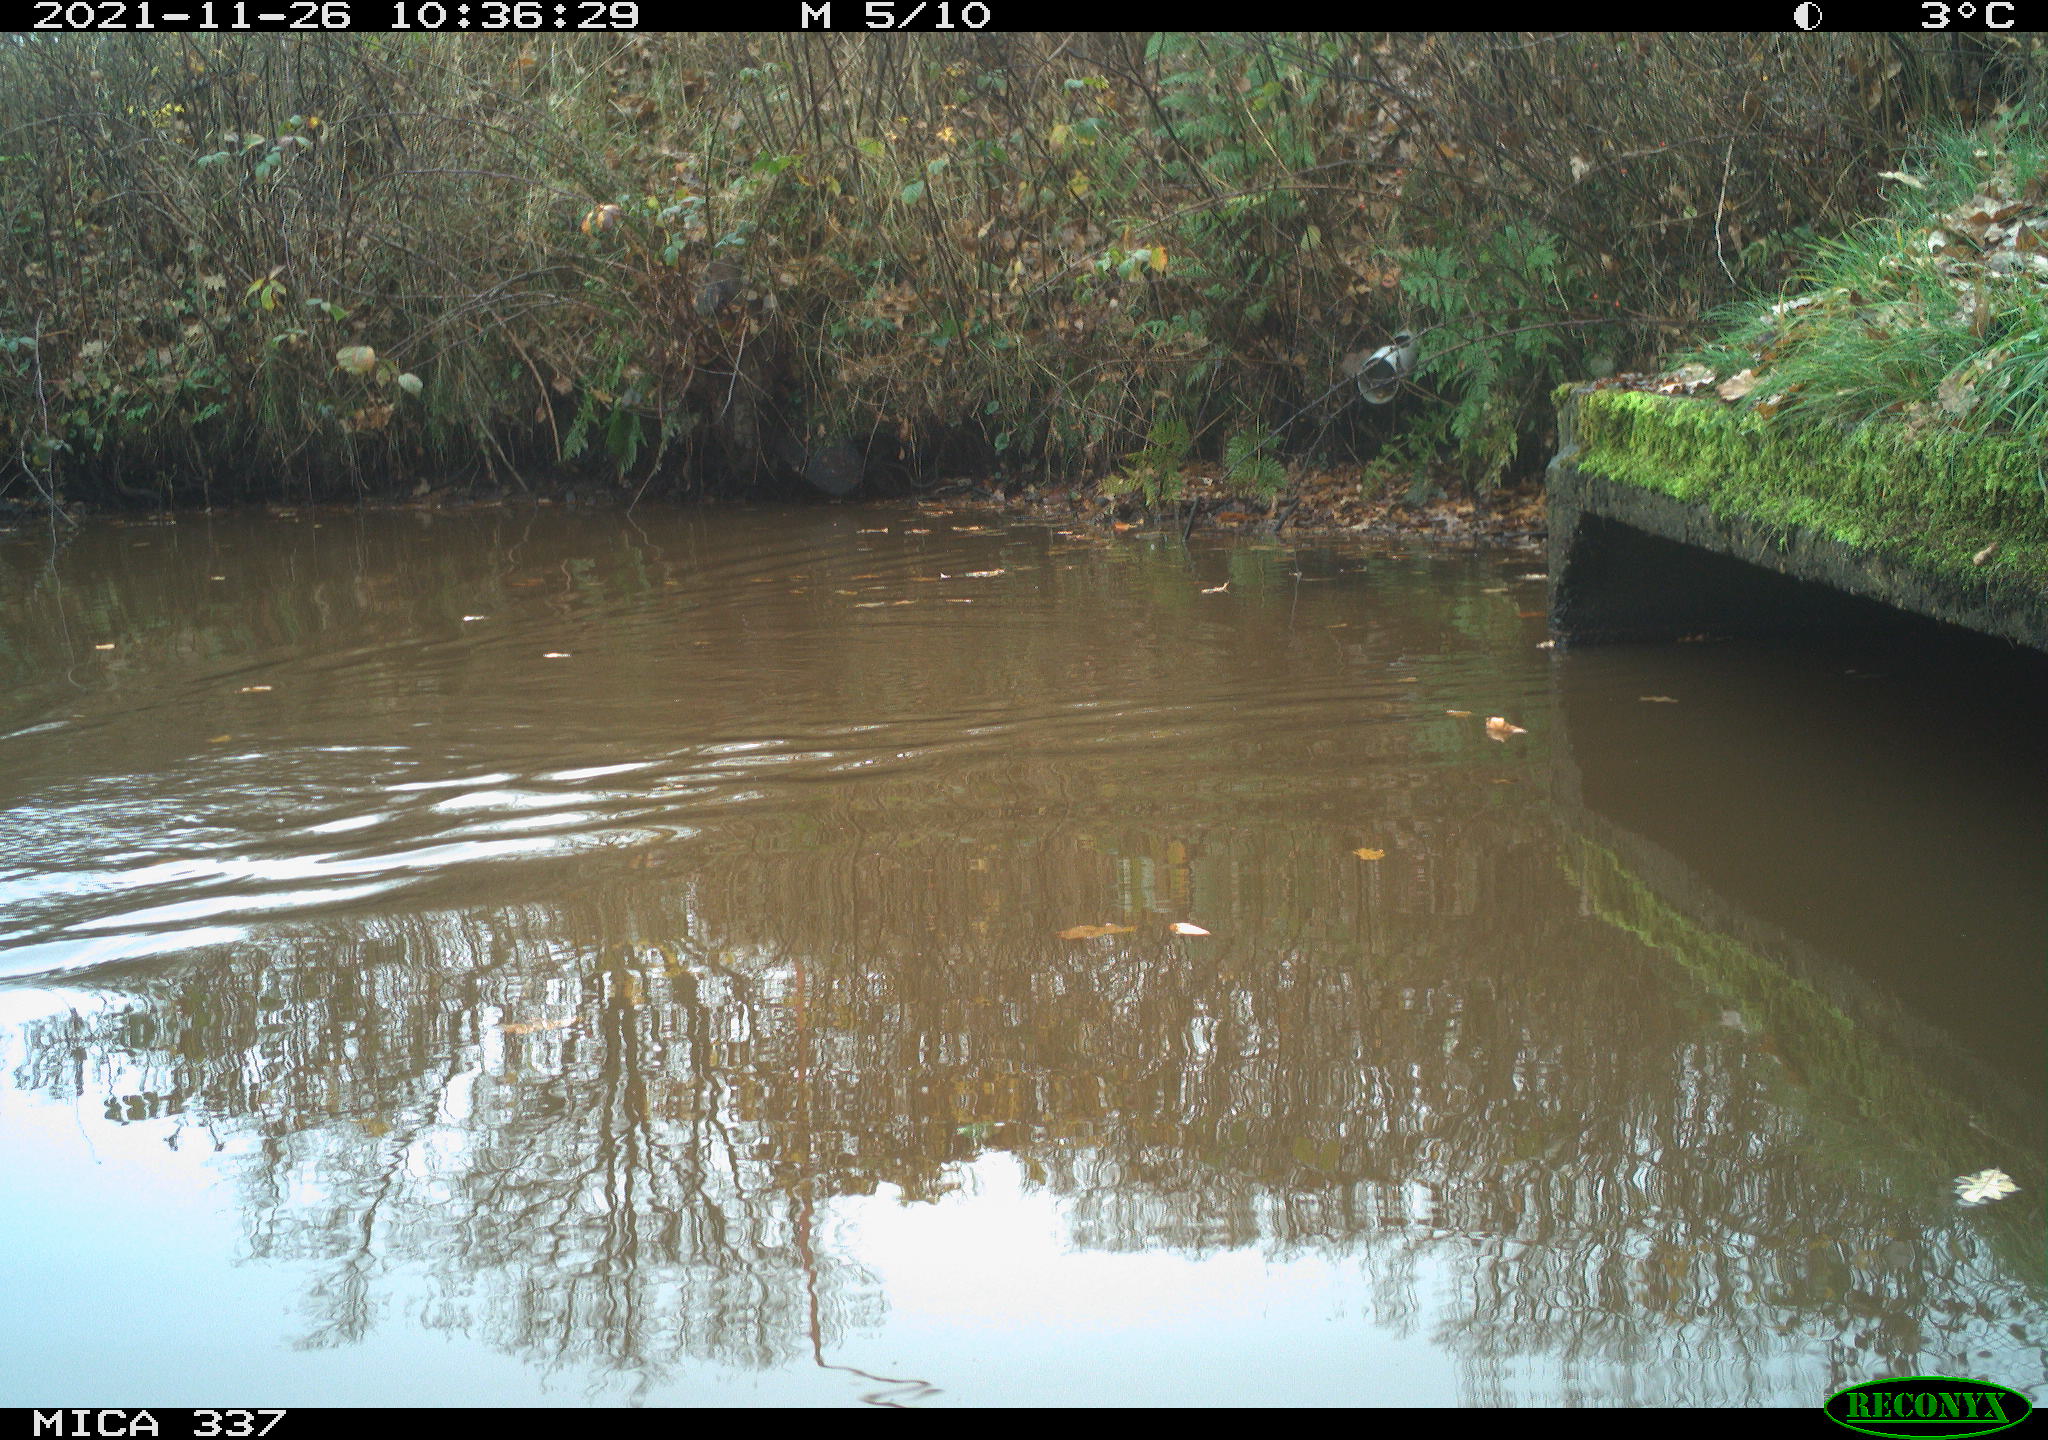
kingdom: Animalia
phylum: Chordata
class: Aves
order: Anseriformes
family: Anatidae
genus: Anas
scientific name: Anas platyrhynchos
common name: Mallard
